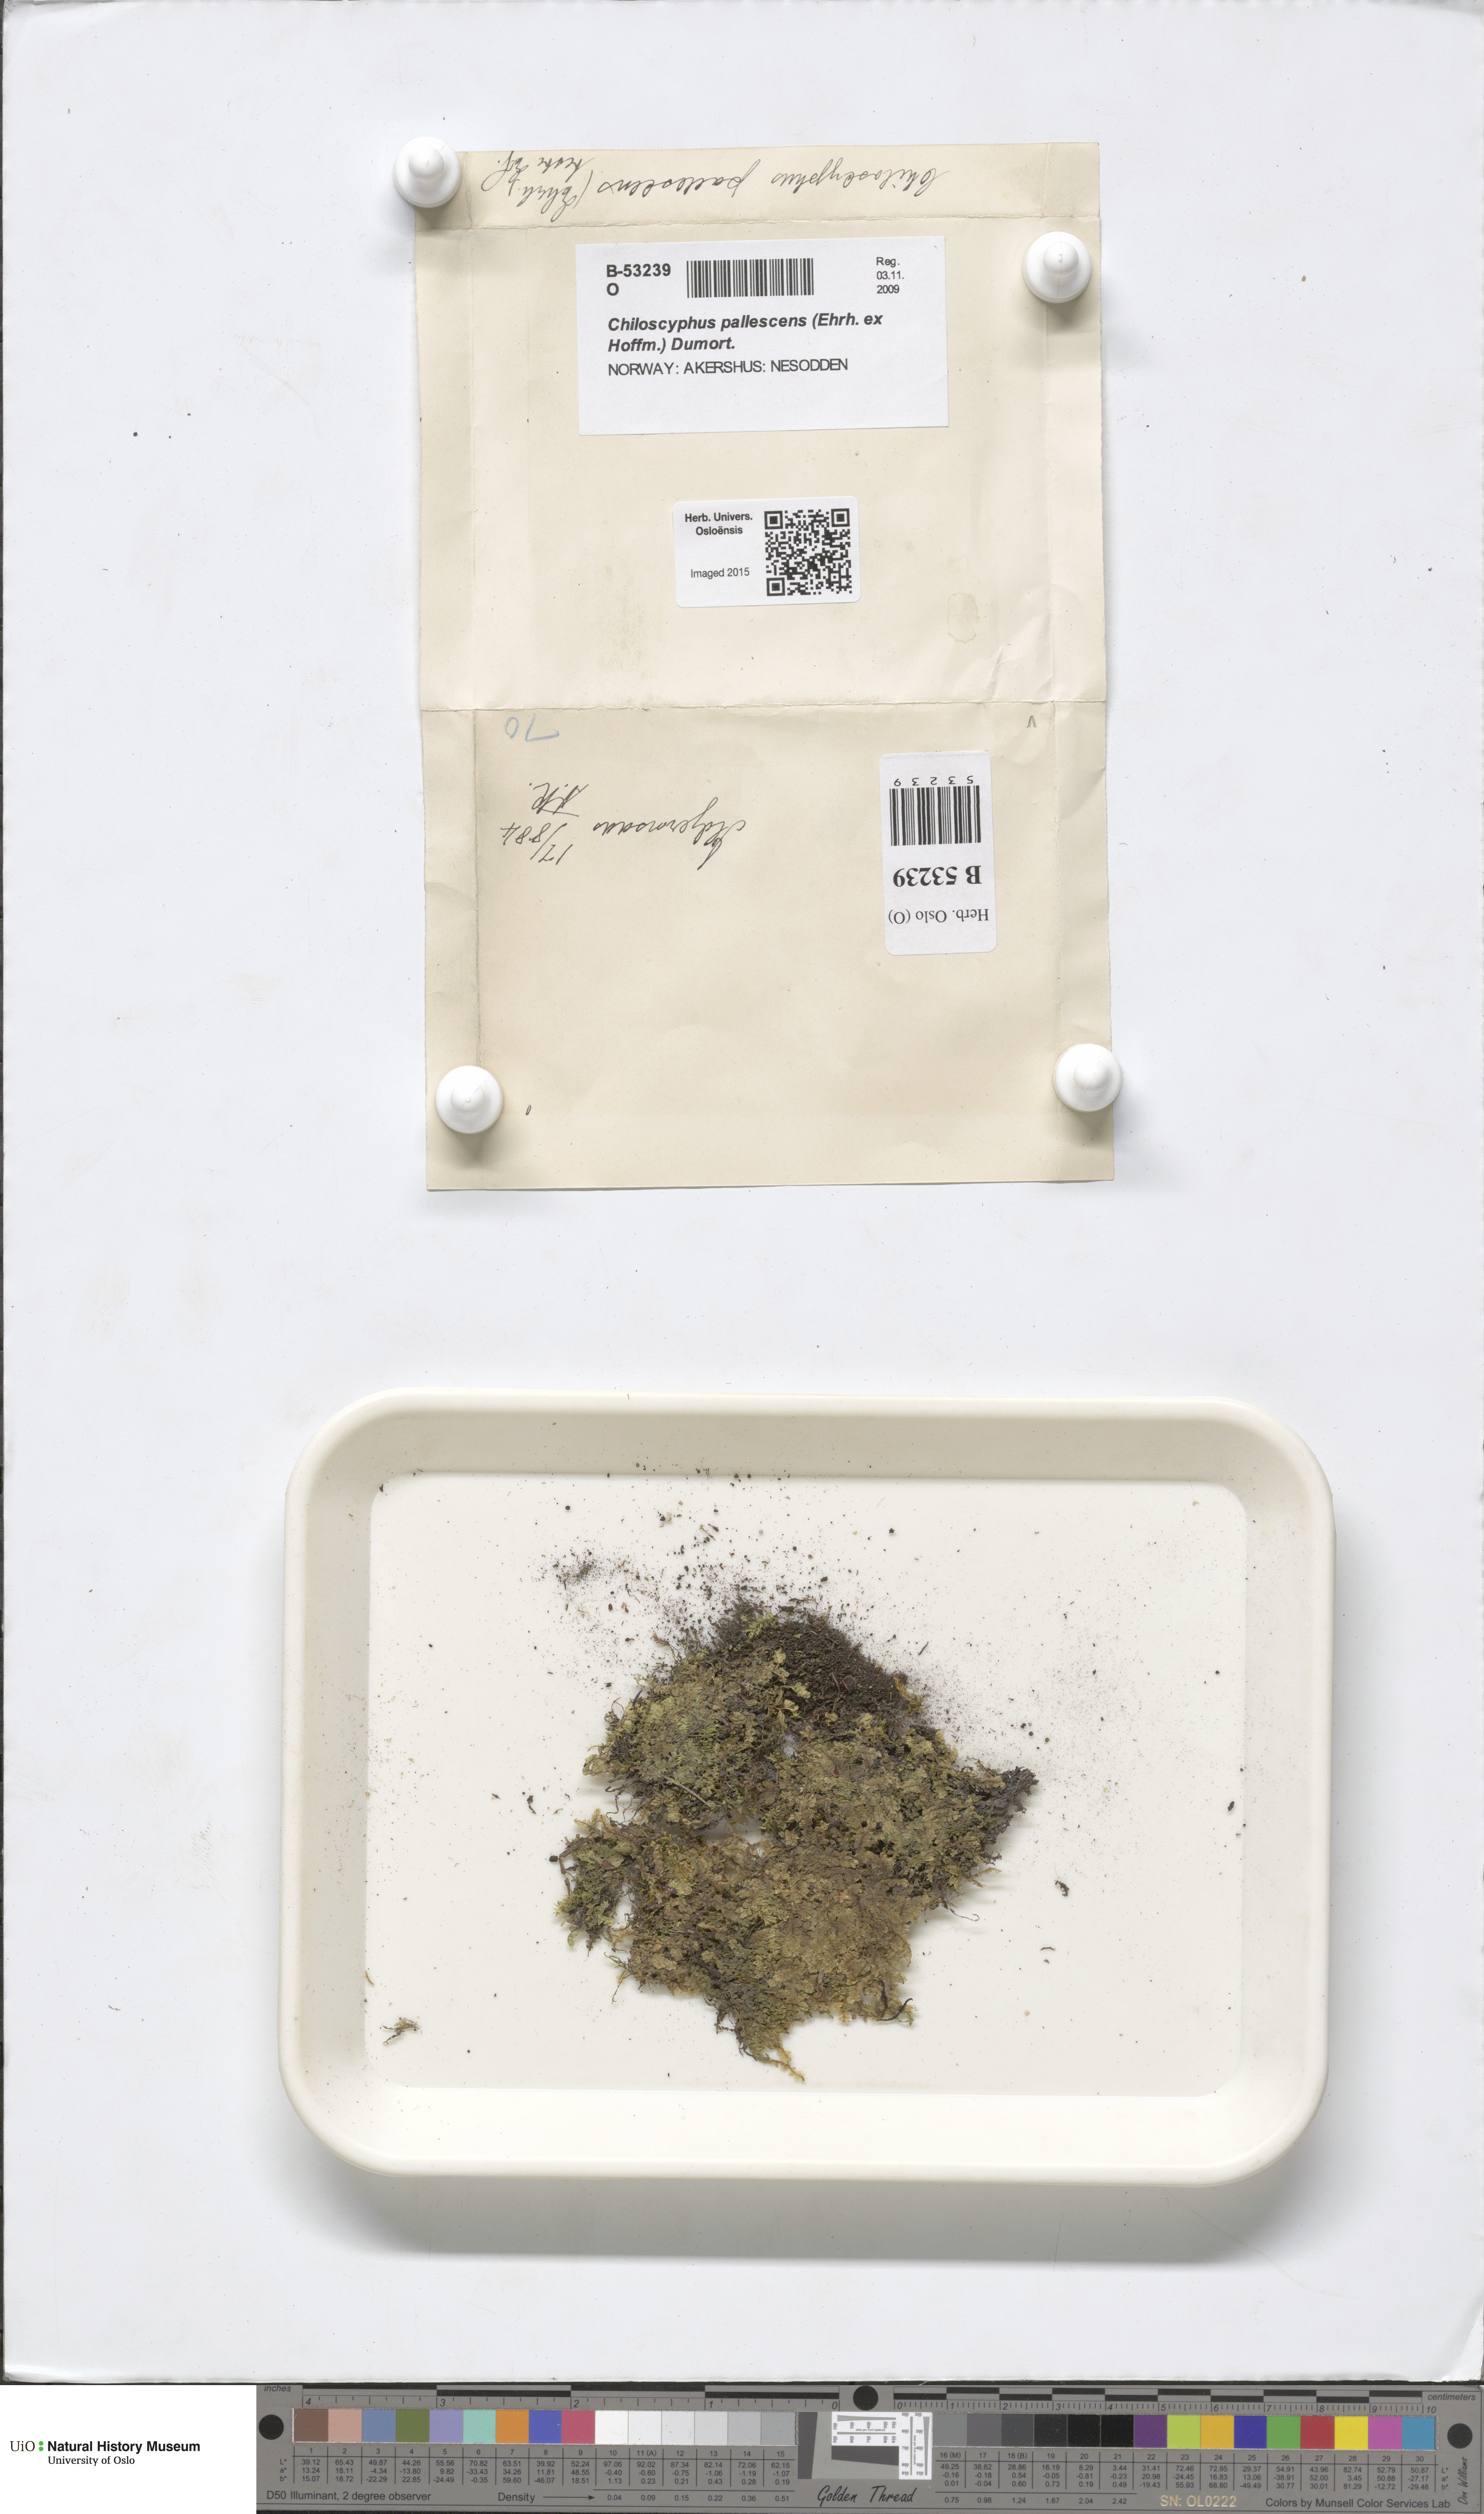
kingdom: Plantae
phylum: Marchantiophyta
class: Jungermanniopsida
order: Jungermanniales
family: Lophocoleaceae
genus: Chiloscyphus
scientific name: Chiloscyphus pallescens
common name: St winifrid's other moss
